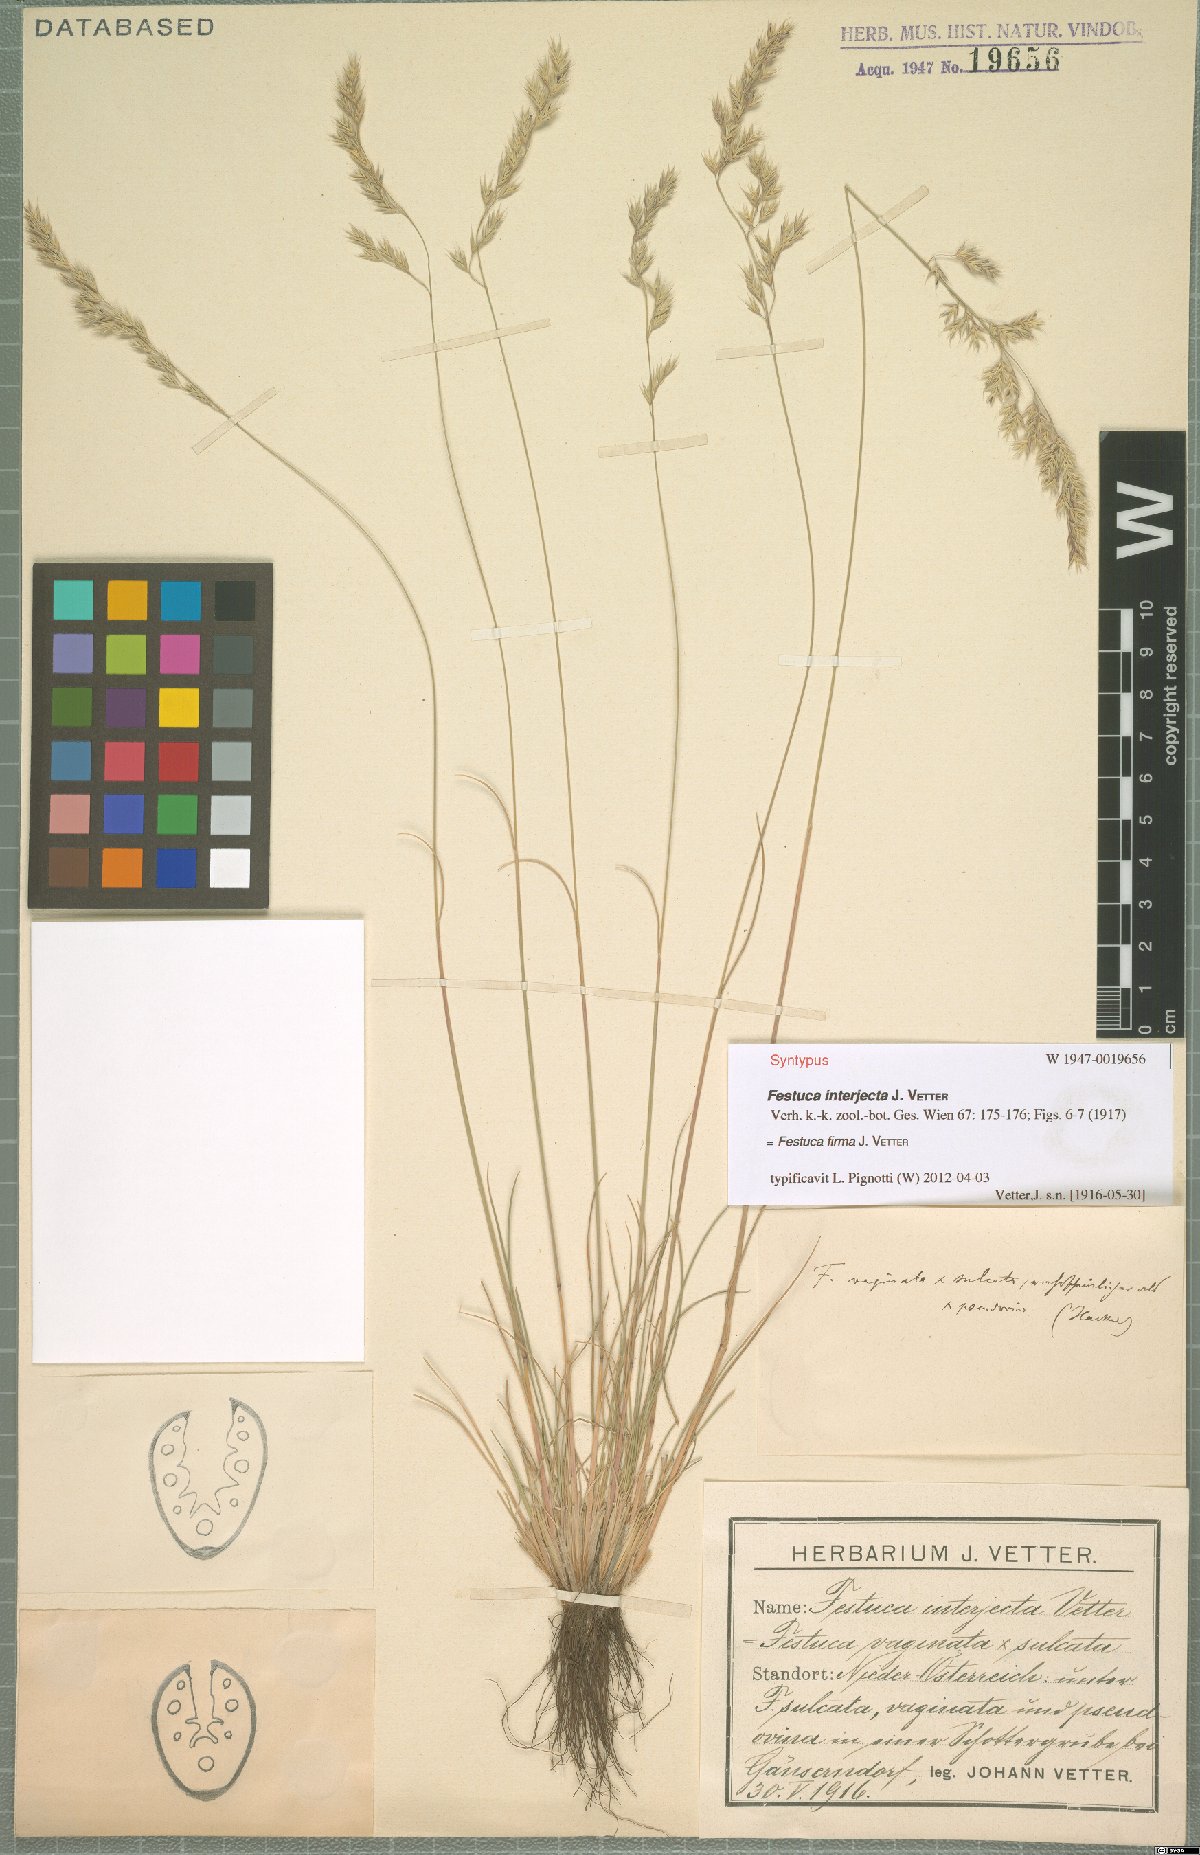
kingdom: Plantae
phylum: Tracheophyta
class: Liliopsida
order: Poales
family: Poaceae
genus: Festuca
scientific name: Festuca pulchra
